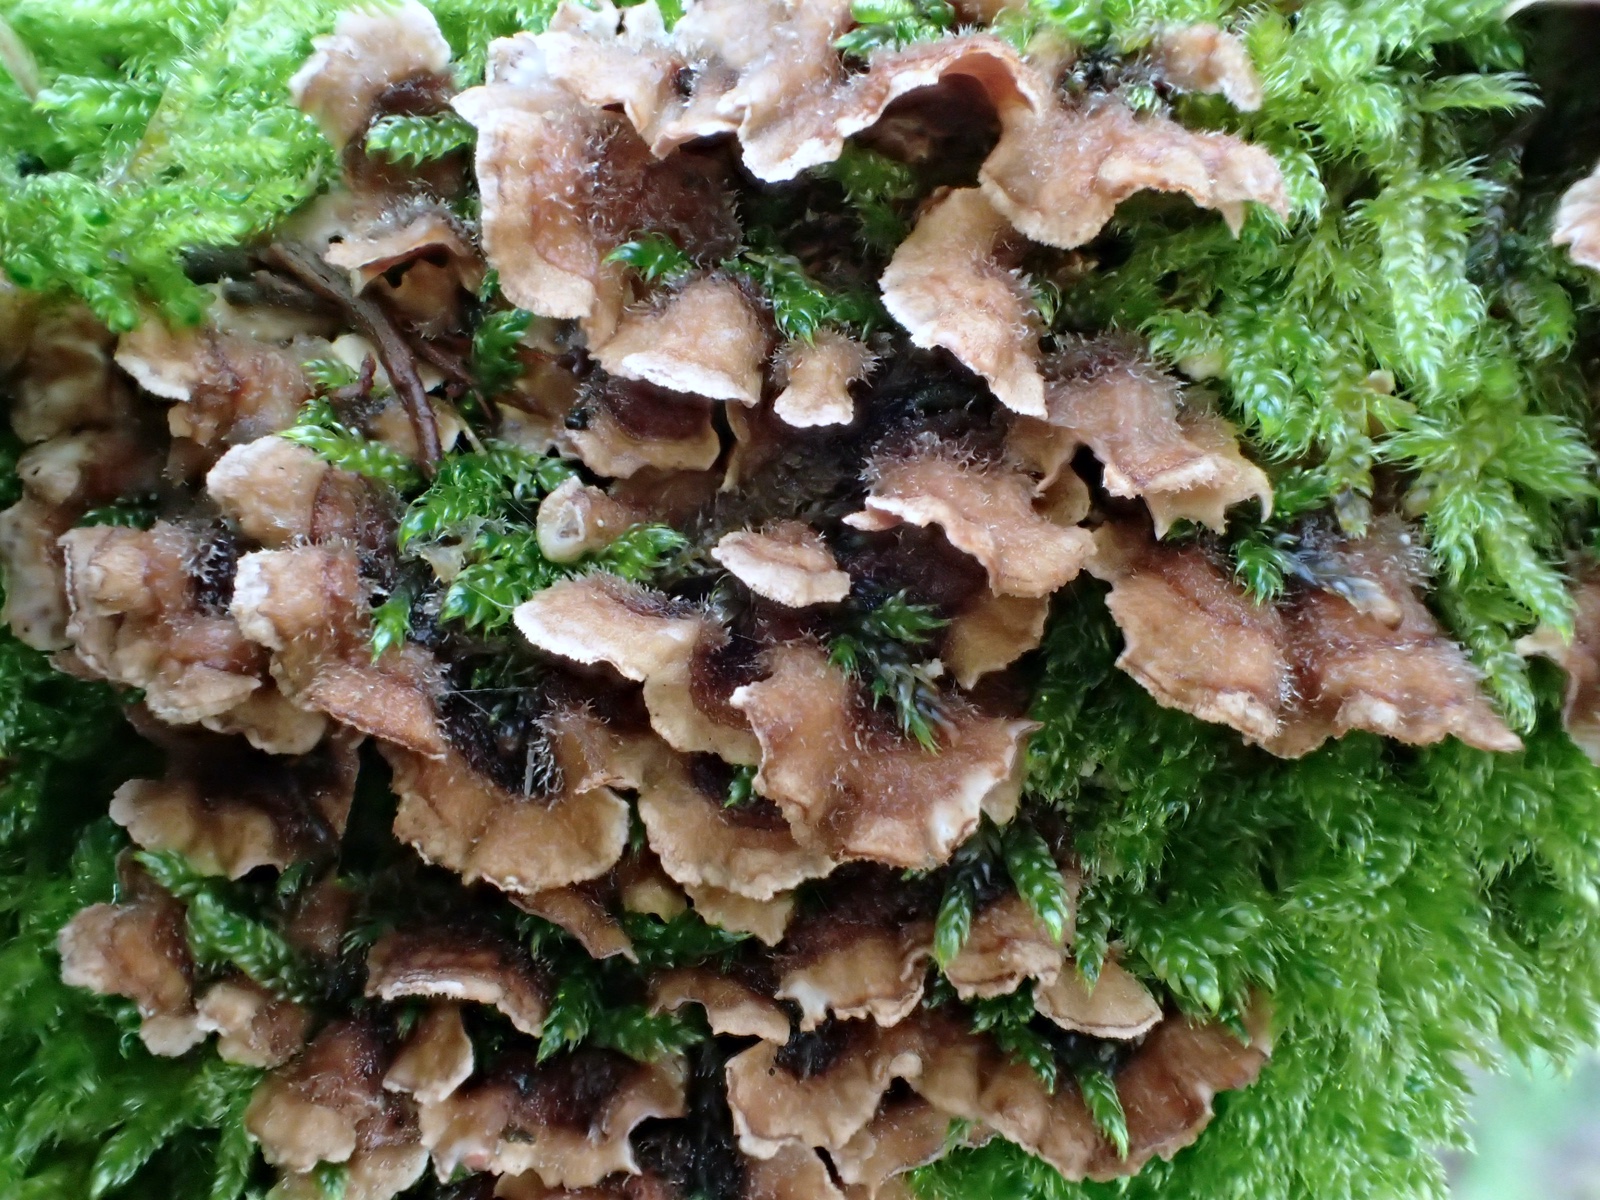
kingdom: Fungi
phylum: Basidiomycota
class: Agaricomycetes
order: Agaricales
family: Cyphellaceae
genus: Chondrostereum
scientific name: Chondrostereum purpureum
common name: purpurlædersvamp
